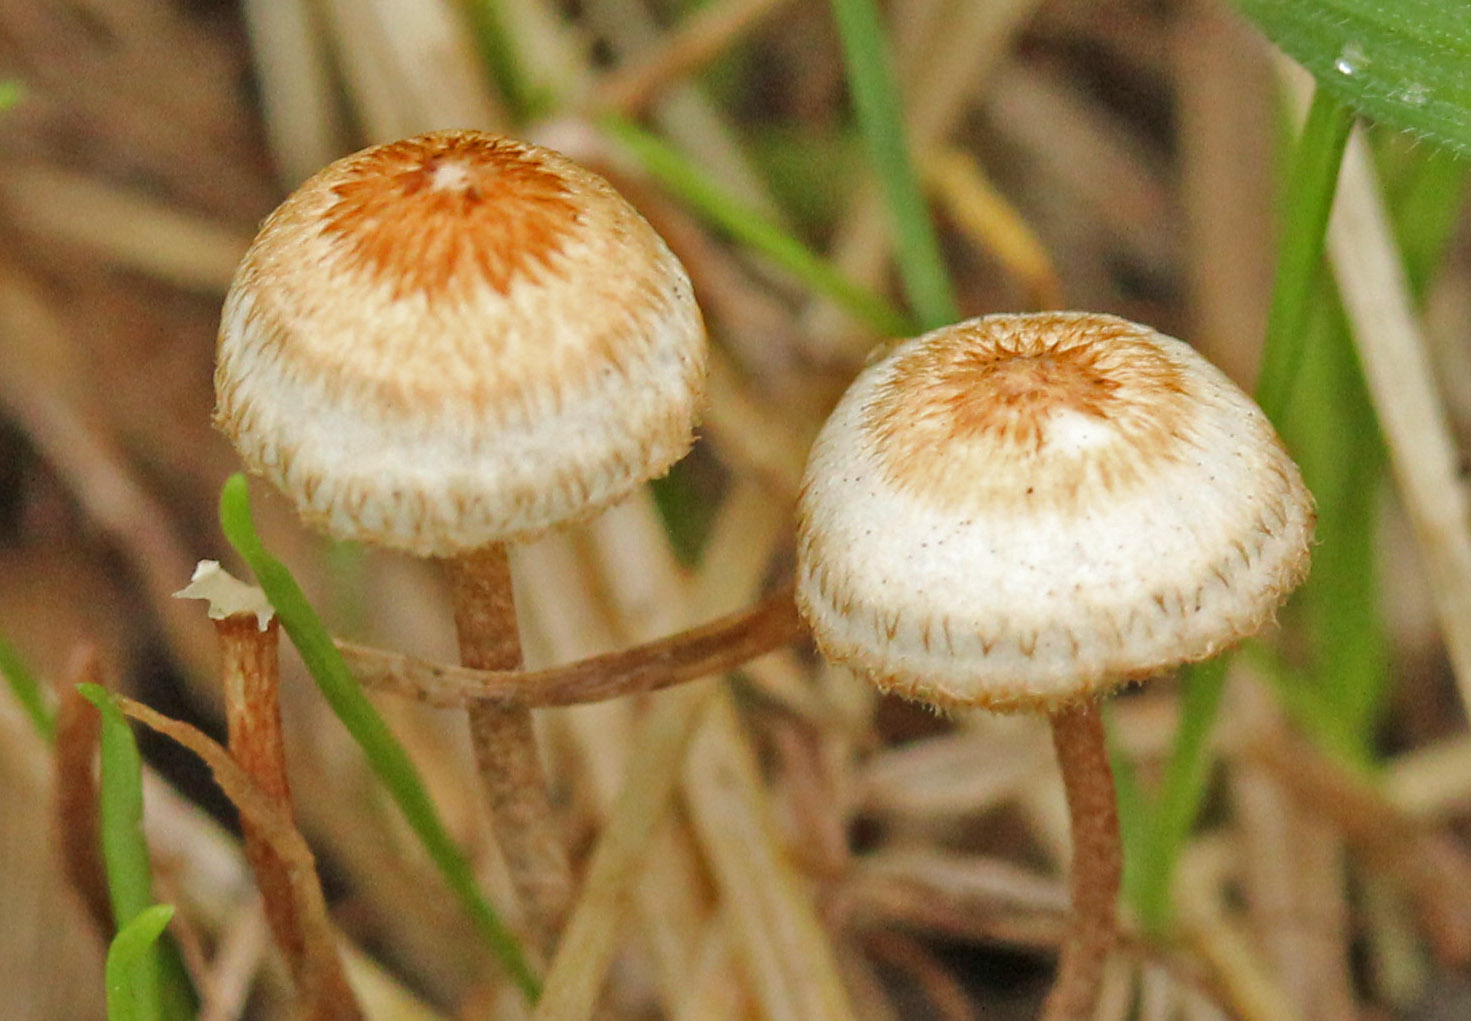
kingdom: Fungi
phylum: Basidiomycota
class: Agaricomycetes
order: Agaricales
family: Marasmiaceae
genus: Crinipellis
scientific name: Crinipellis scabella
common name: børstefod
